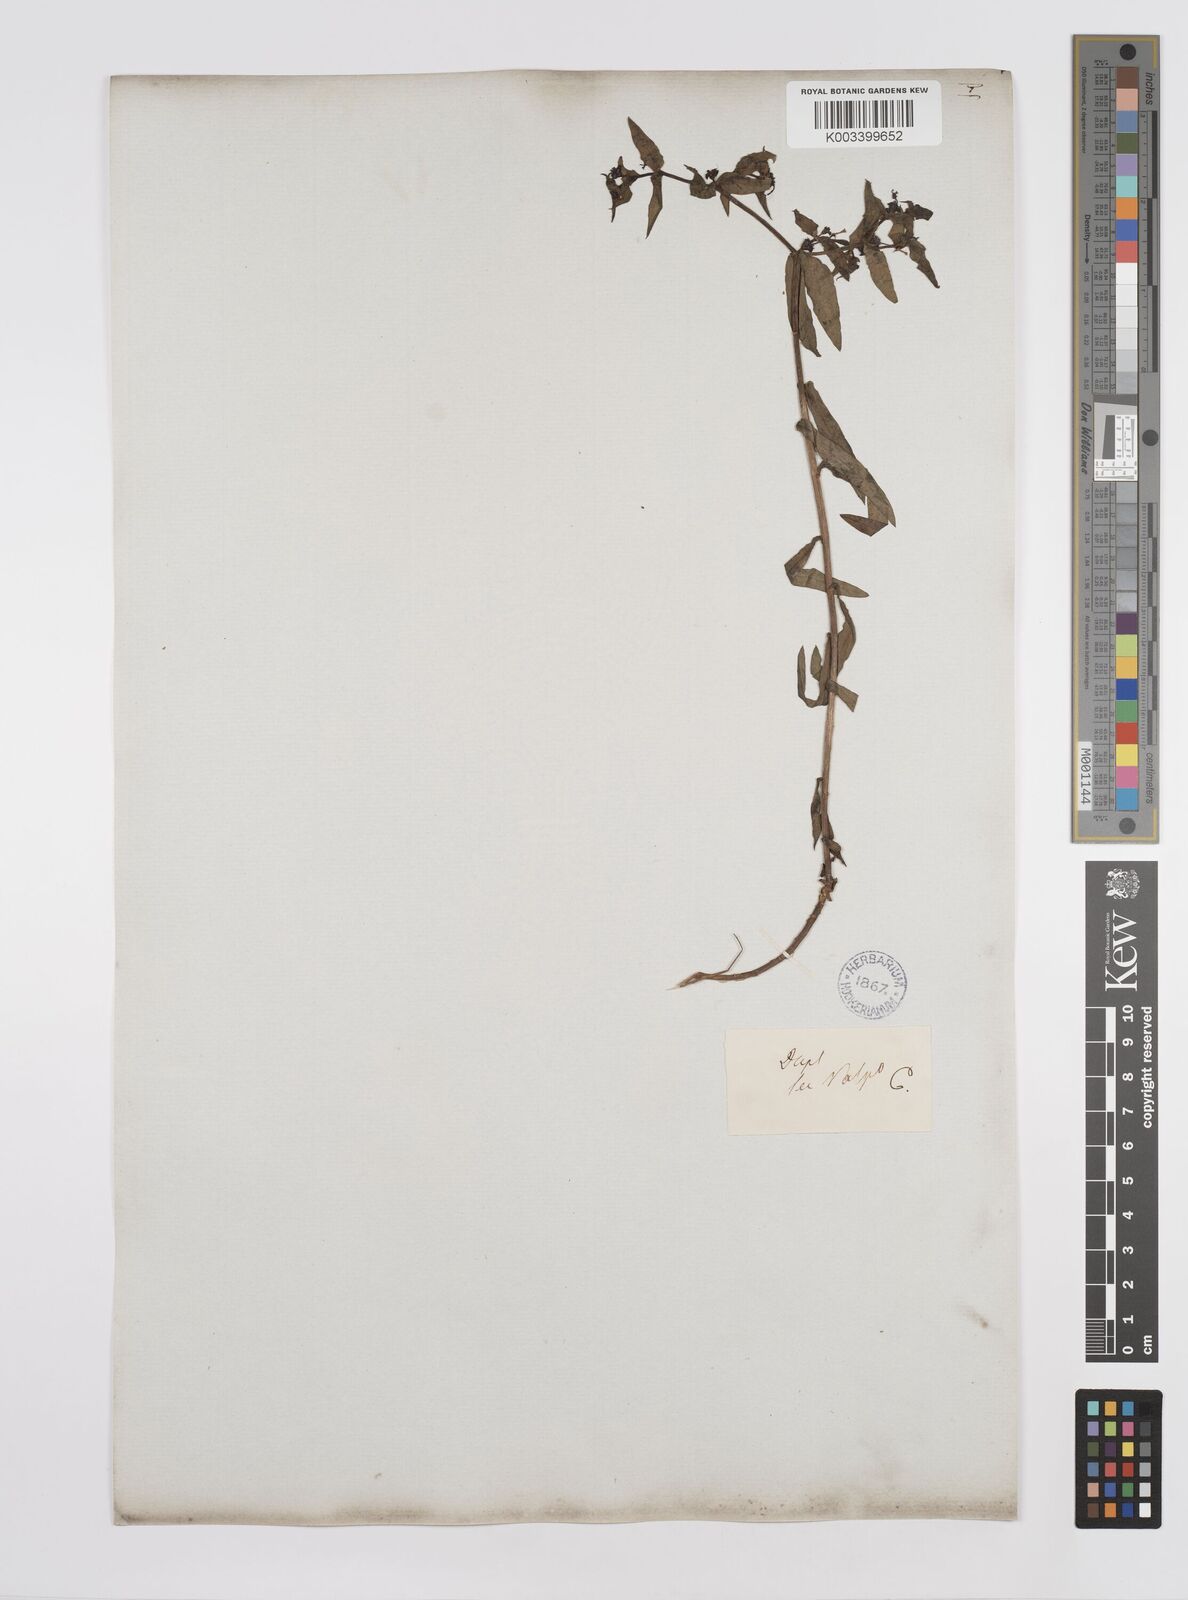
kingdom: Plantae
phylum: Tracheophyta
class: Magnoliopsida
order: Malpighiales
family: Euphorbiaceae
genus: Euphorbia
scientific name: Euphorbia portulacoides
